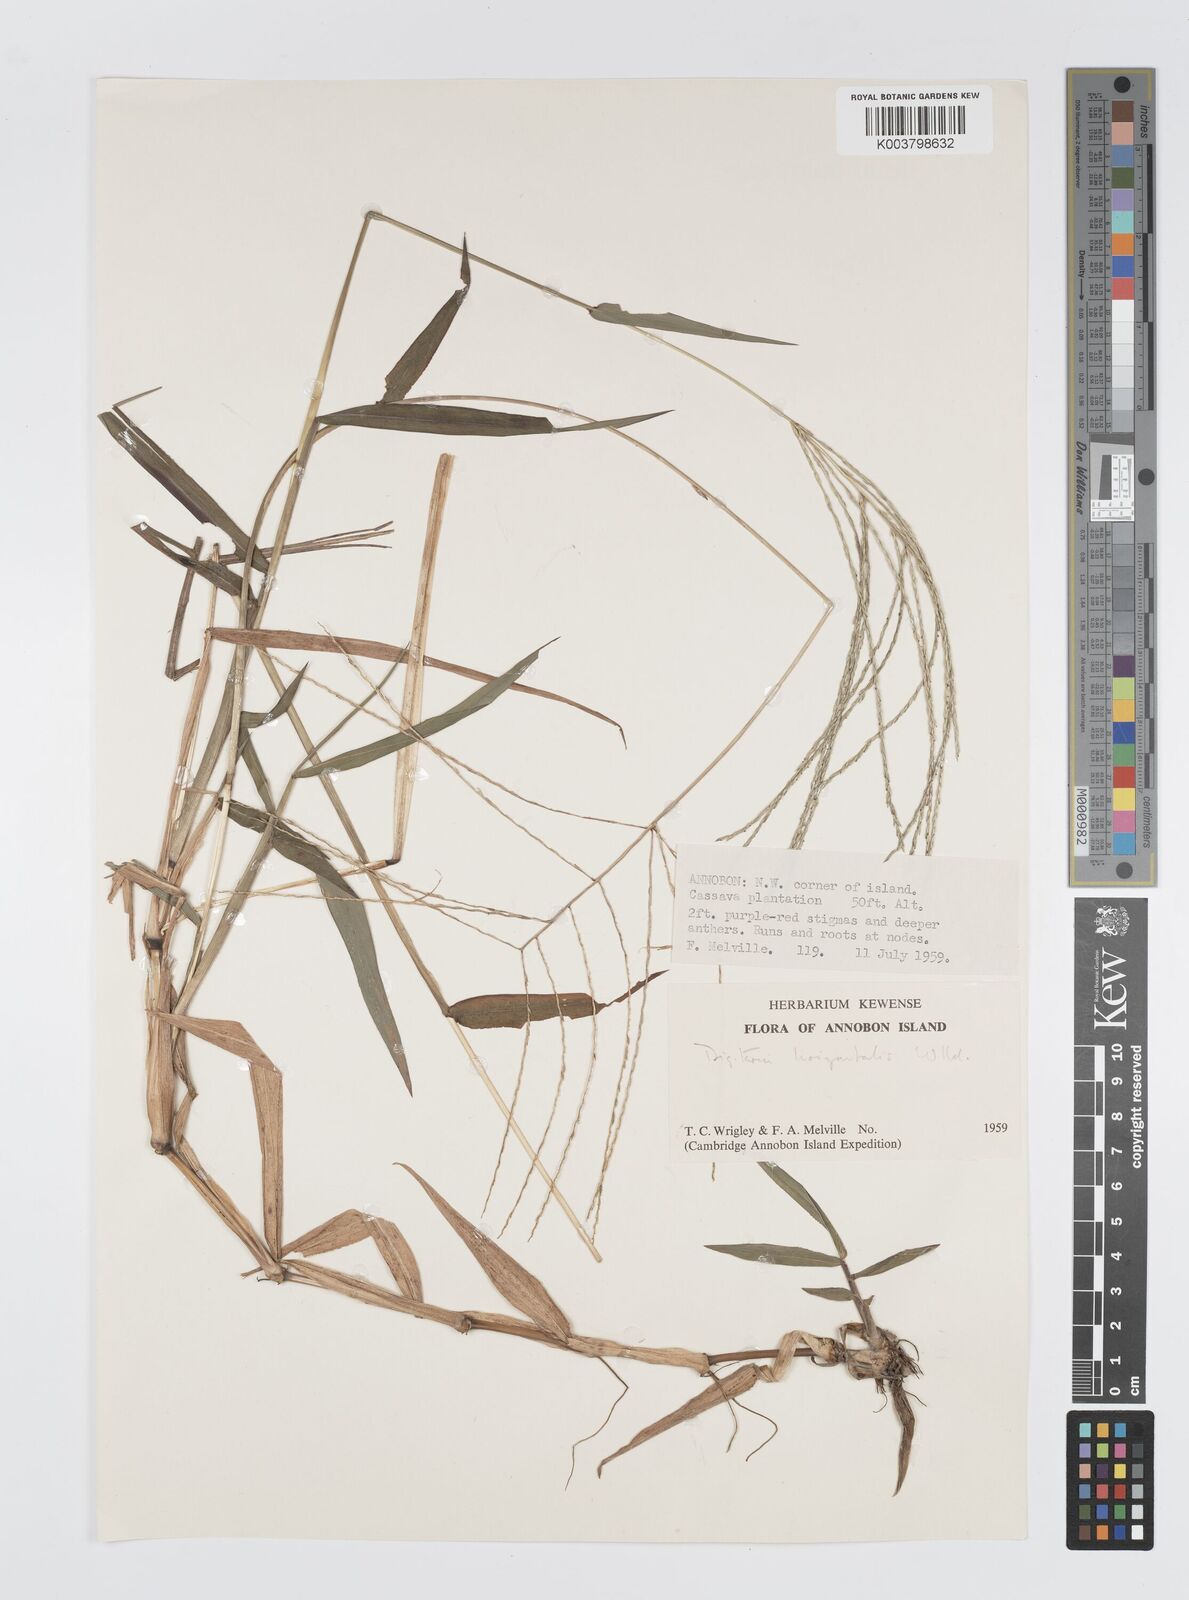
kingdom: Plantae
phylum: Tracheophyta
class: Liliopsida
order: Poales
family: Poaceae
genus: Digitaria
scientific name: Digitaria horizontalis
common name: Jamaican crabgrass
